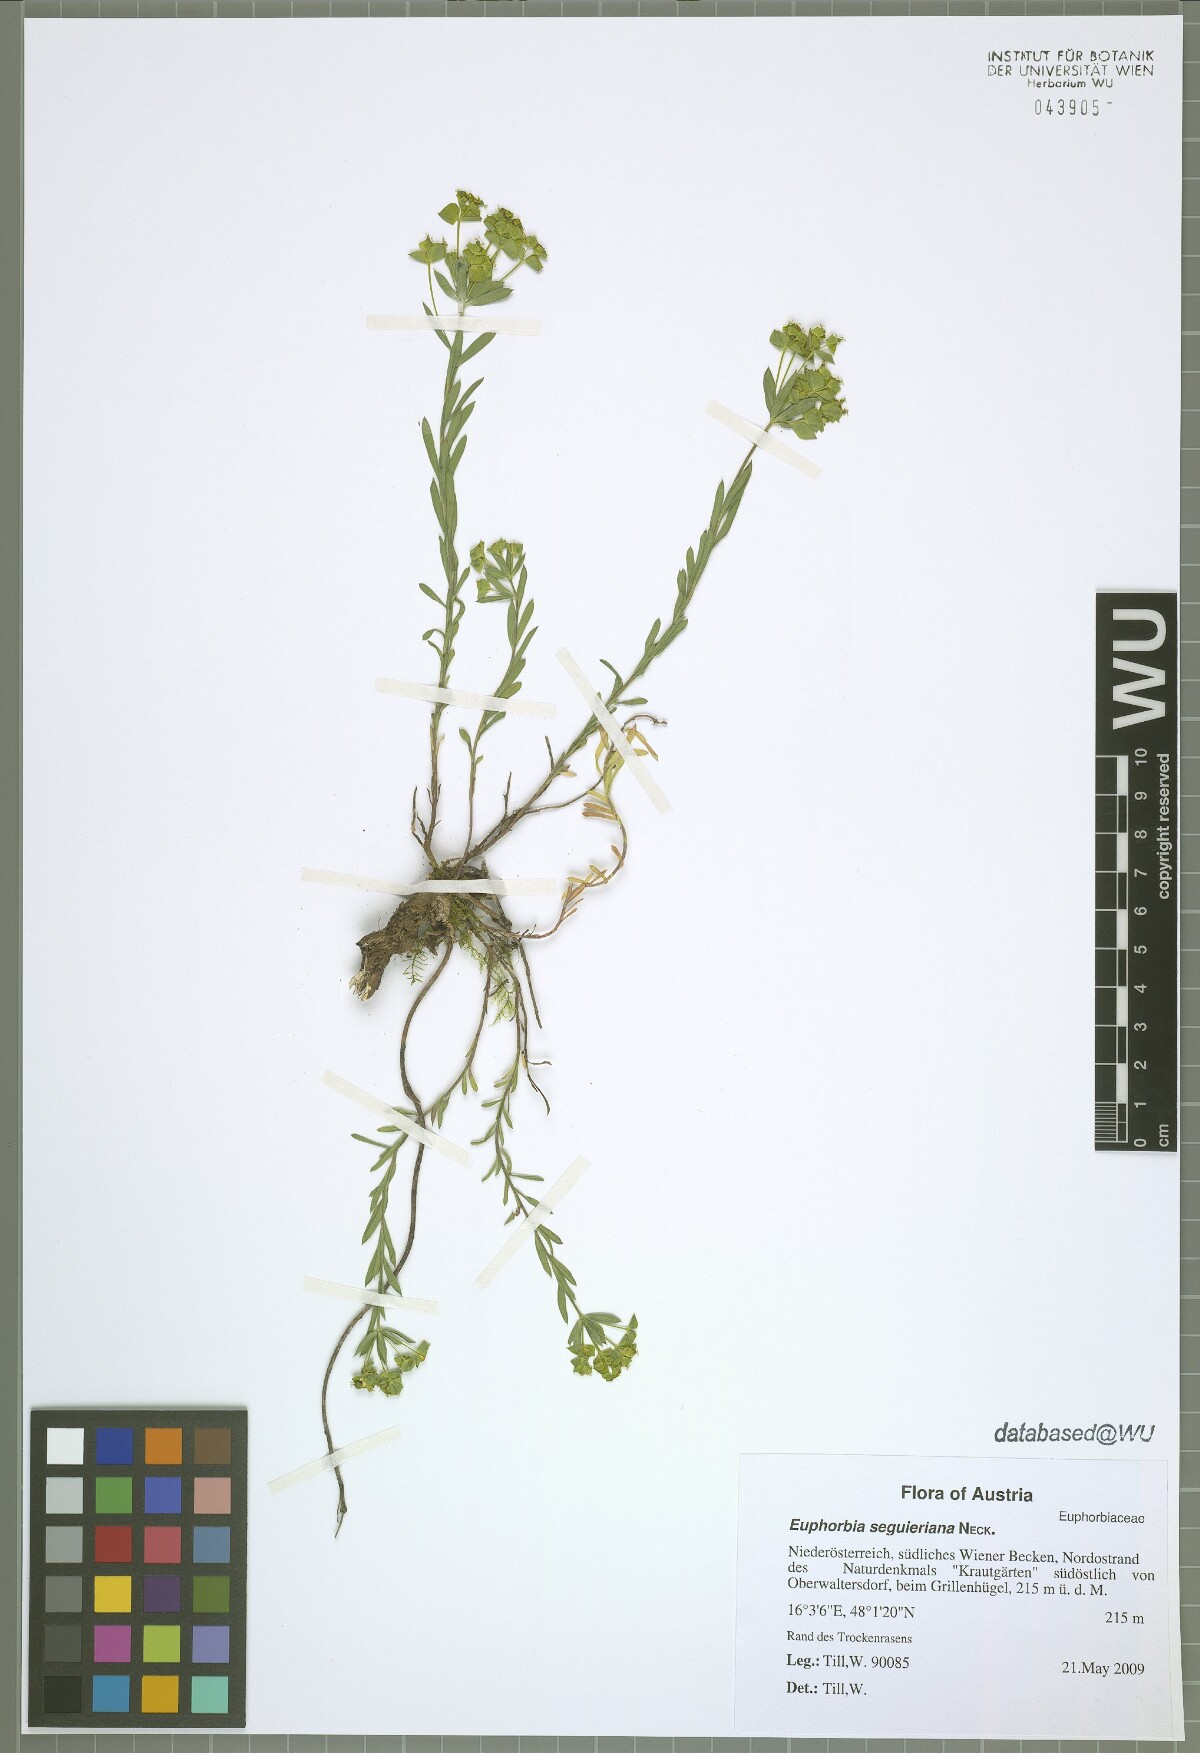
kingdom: Plantae
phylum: Tracheophyta
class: Magnoliopsida
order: Malpighiales
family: Euphorbiaceae
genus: Euphorbia
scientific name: Euphorbia seguieriana
